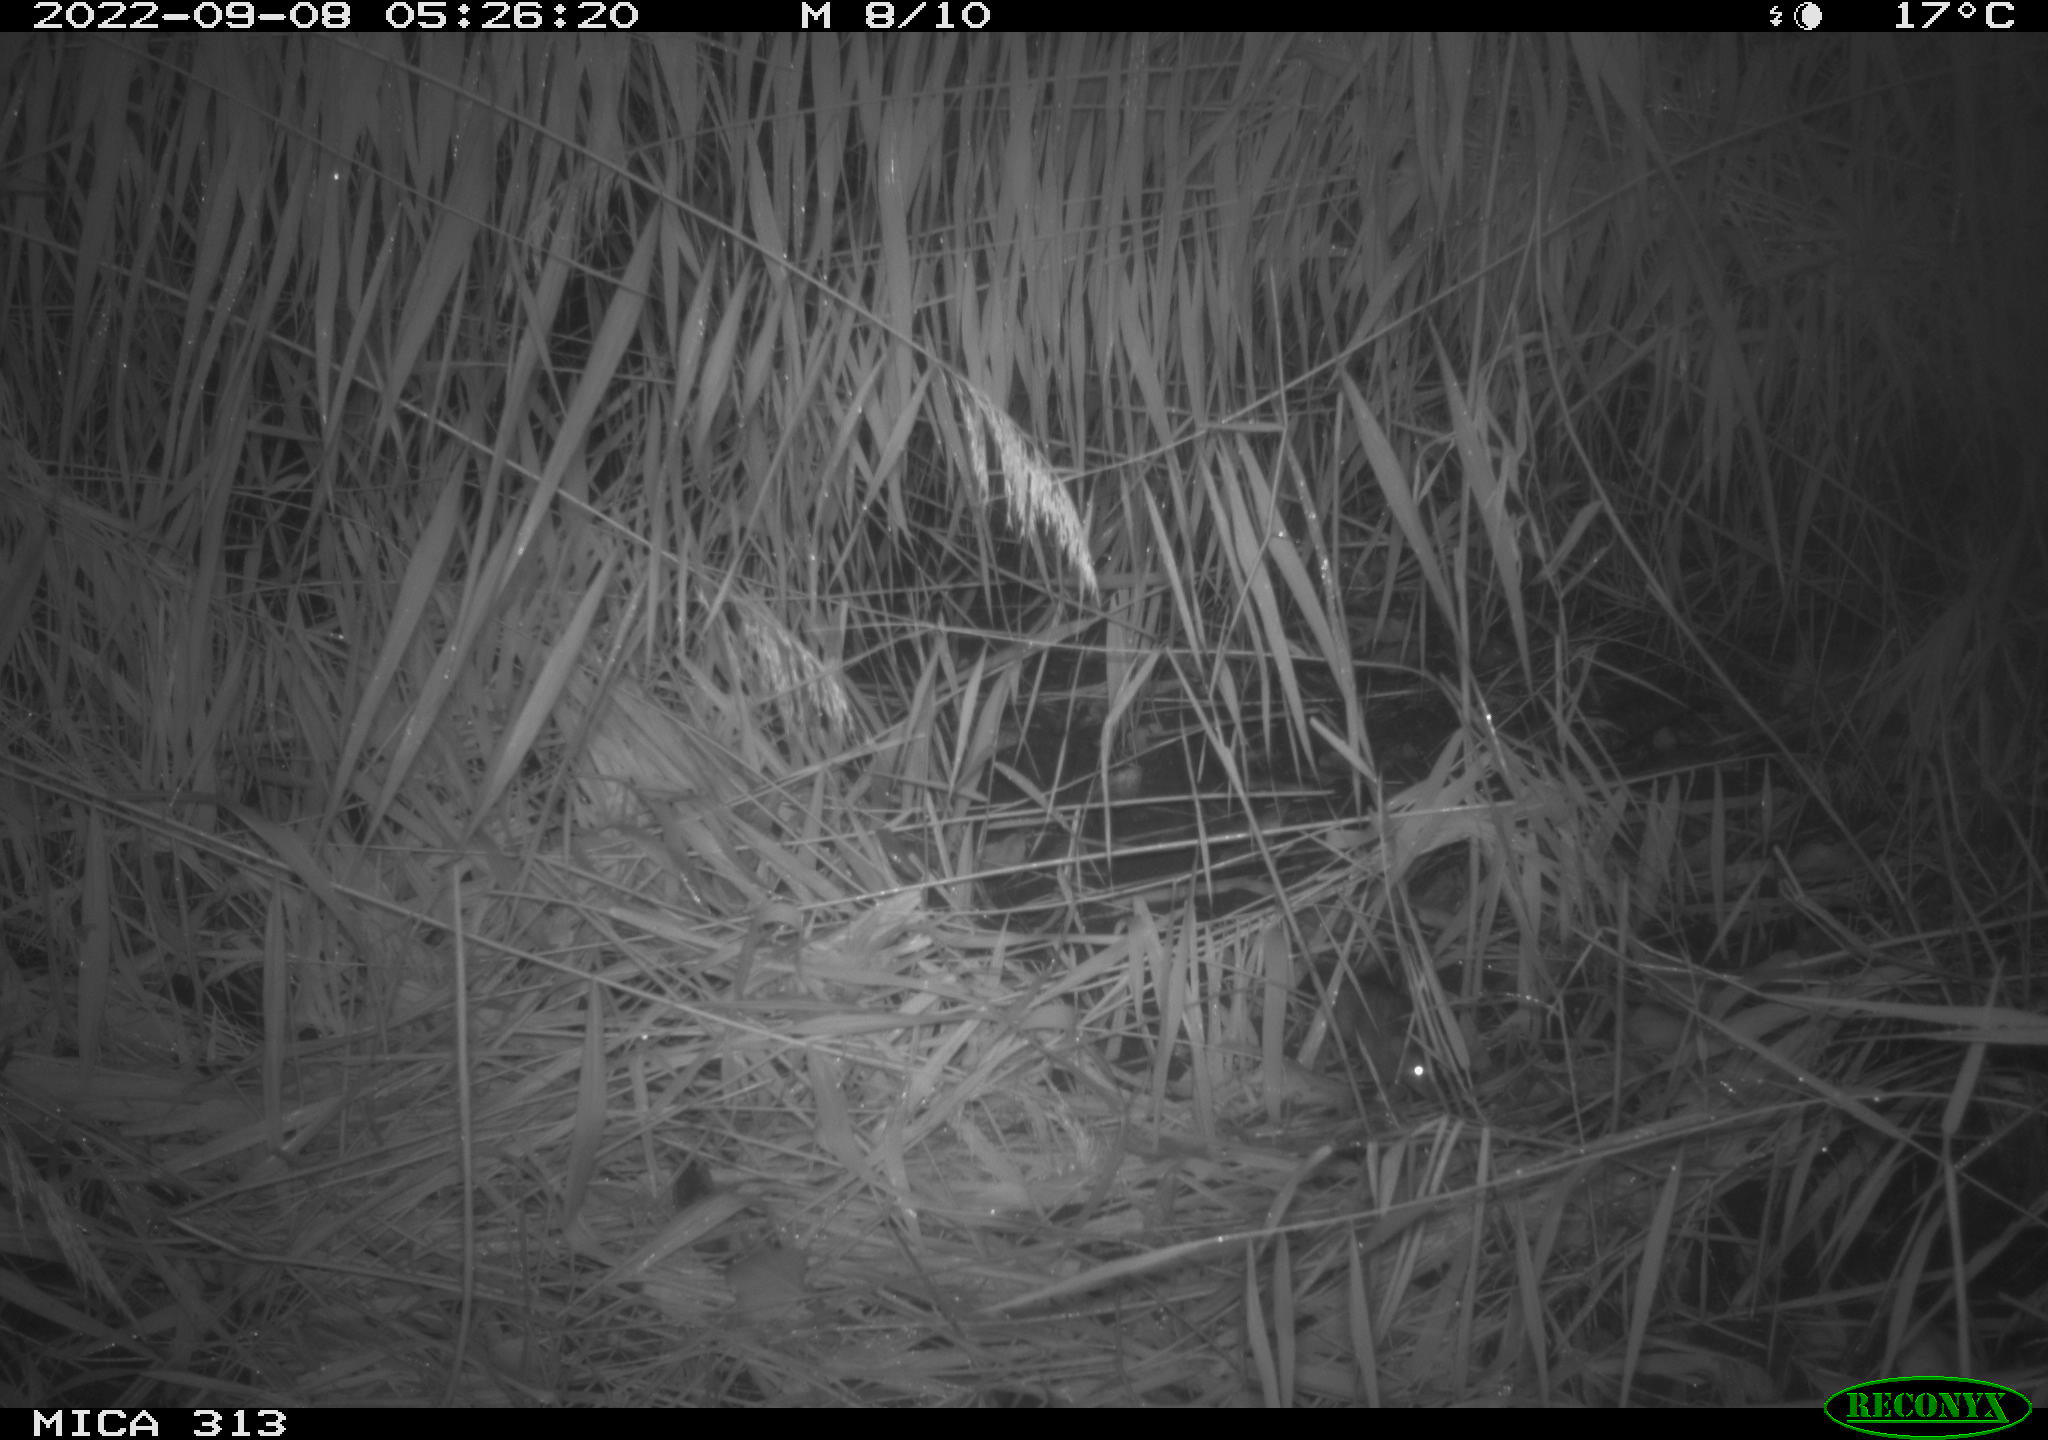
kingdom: Animalia
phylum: Chordata
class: Mammalia
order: Rodentia
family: Muridae
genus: Rattus
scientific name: Rattus norvegicus
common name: Brown rat
